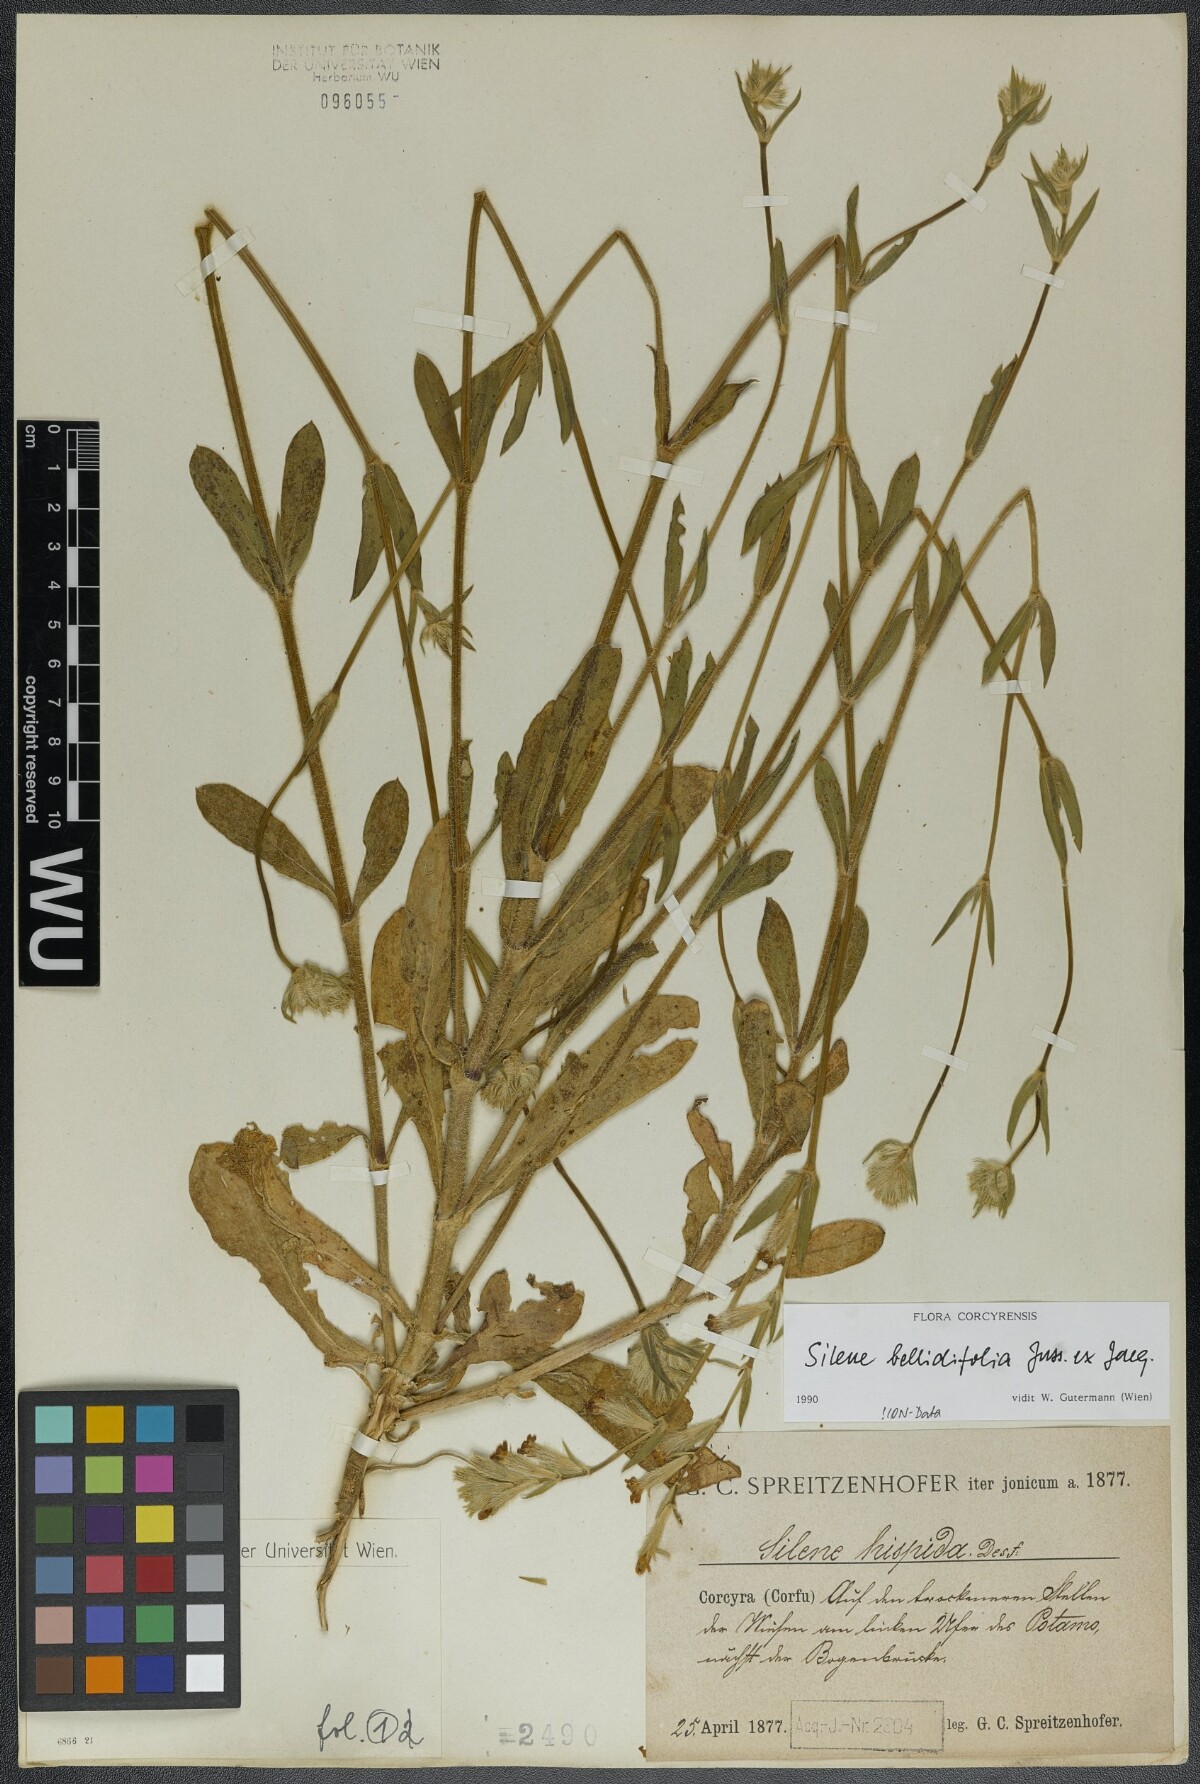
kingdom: Plantae
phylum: Tracheophyta
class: Magnoliopsida
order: Caryophyllales
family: Caryophyllaceae
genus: Silene
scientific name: Silene bellidifolia
